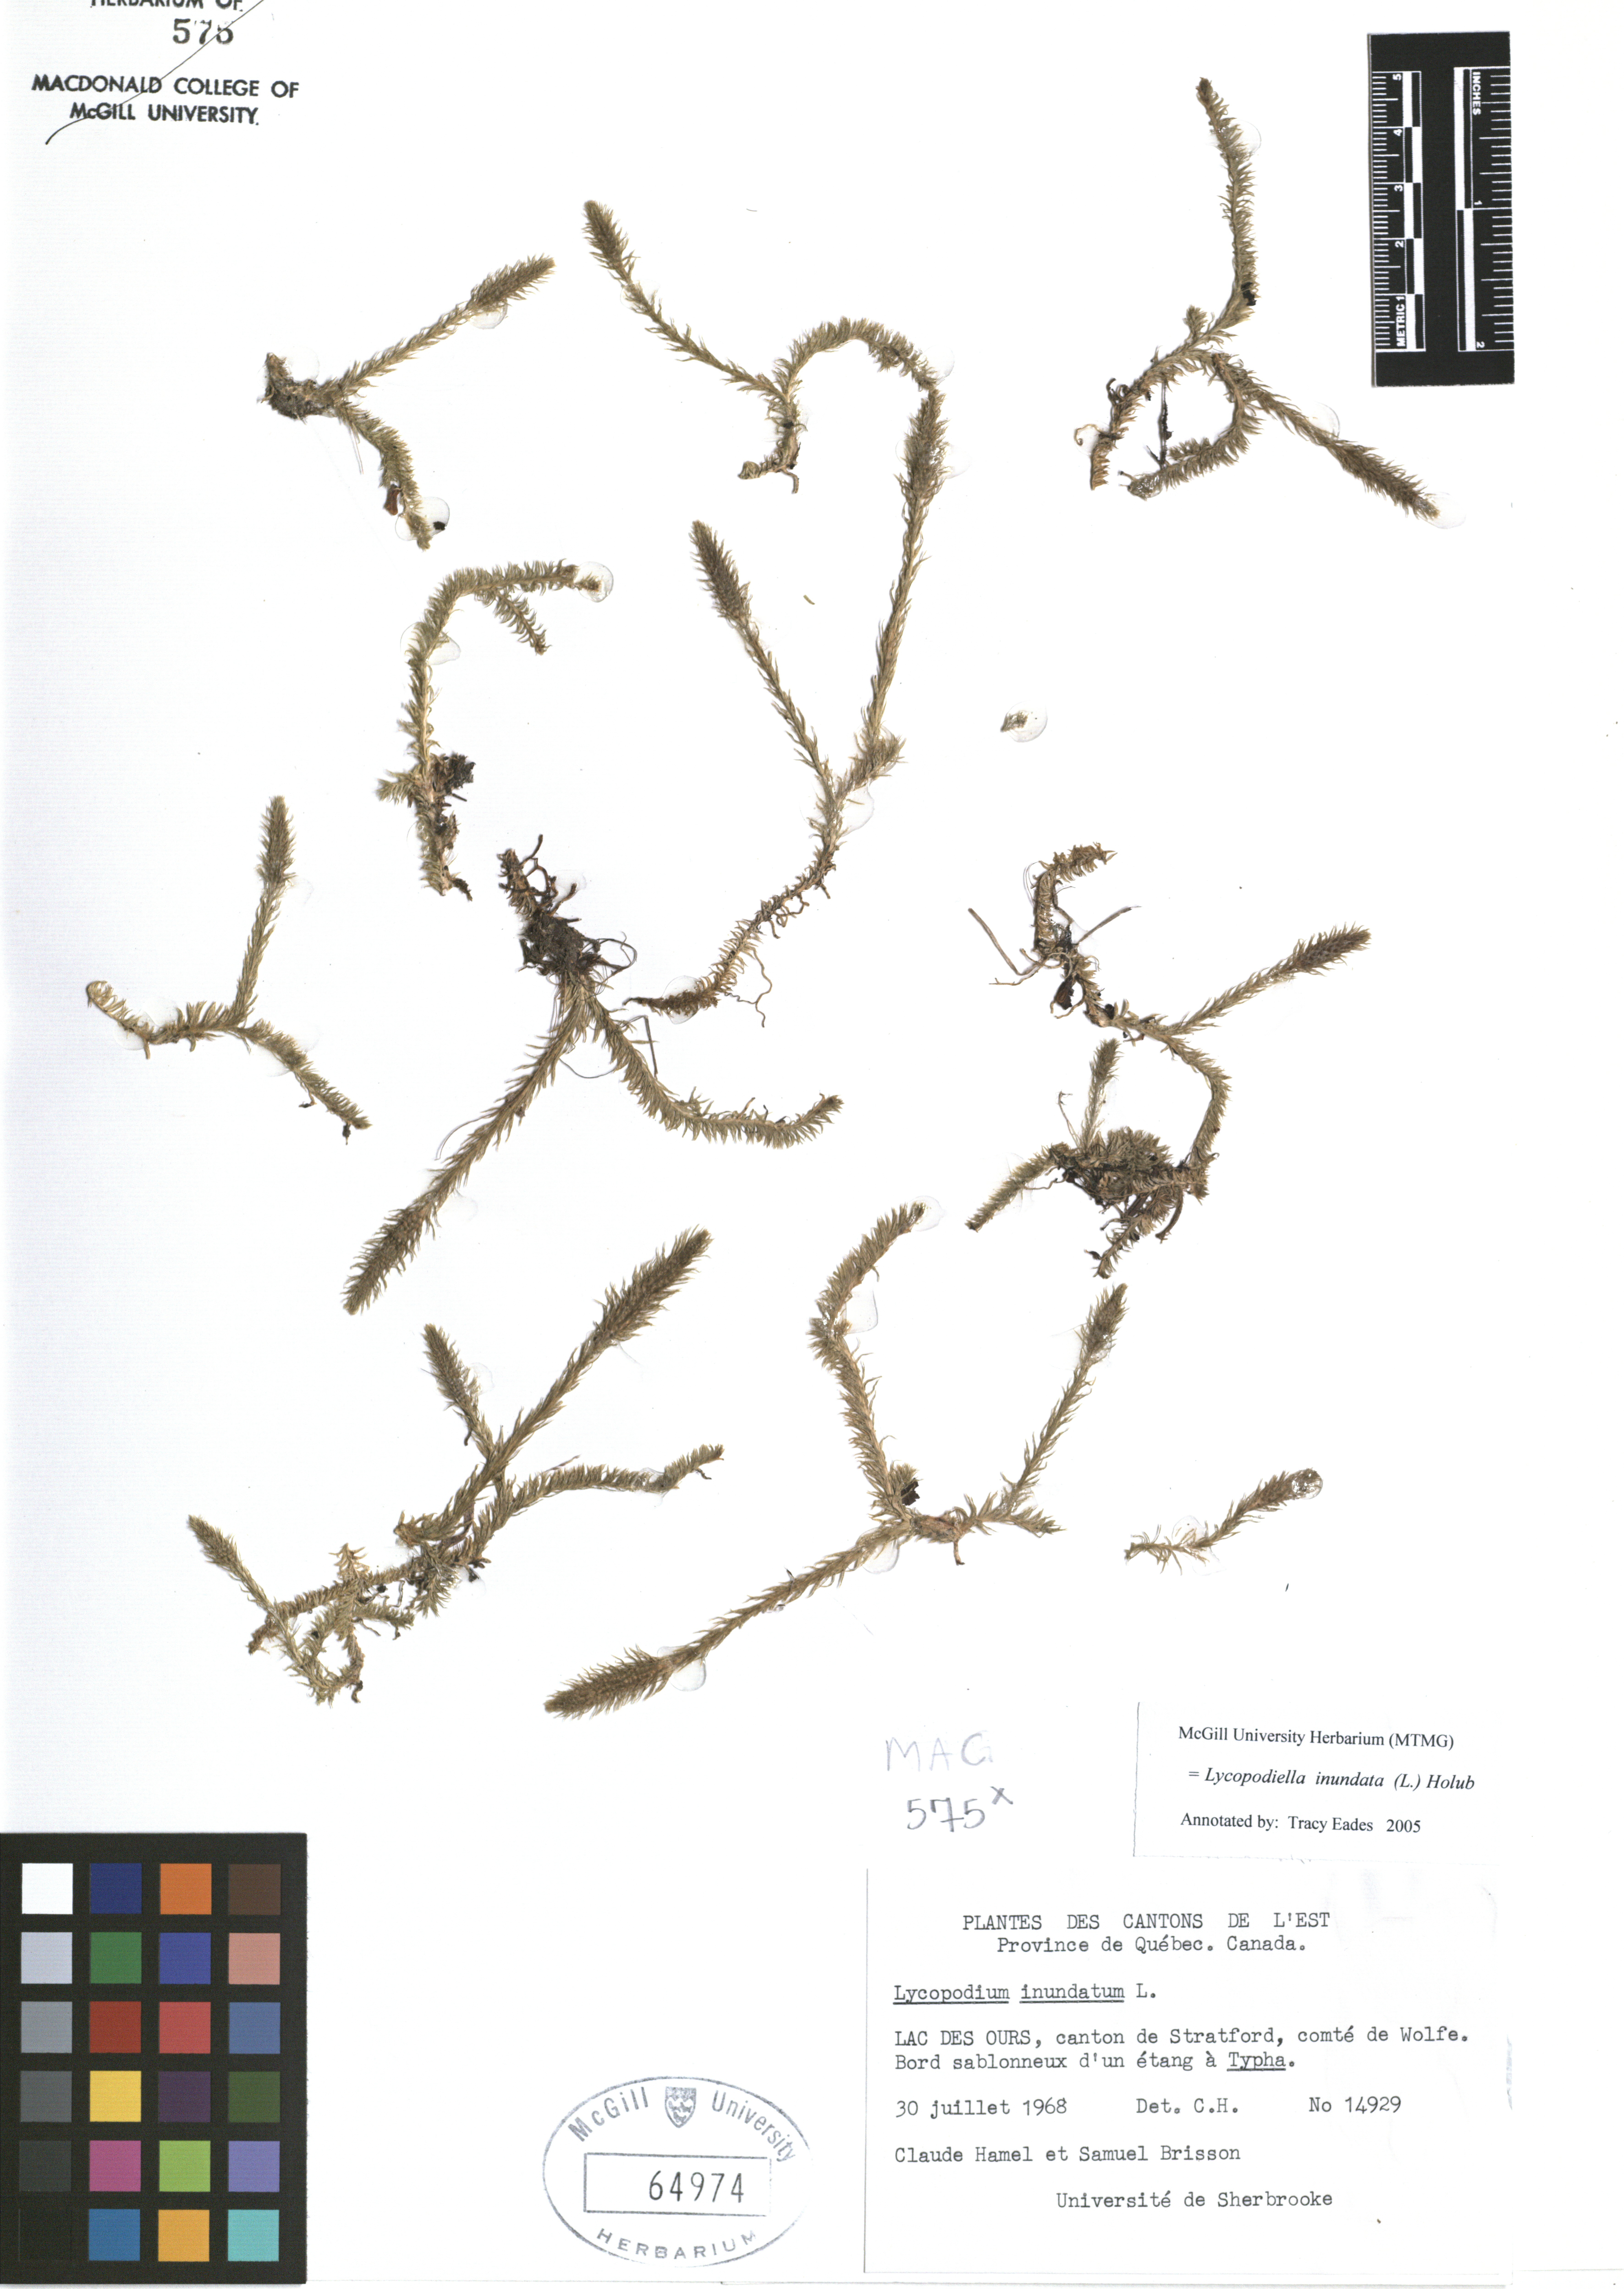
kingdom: Plantae
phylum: Tracheophyta
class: Lycopodiopsida
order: Lycopodiales
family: Lycopodiaceae
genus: Lycopodiella
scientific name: Lycopodiella inundata
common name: Marsh clubmoss
